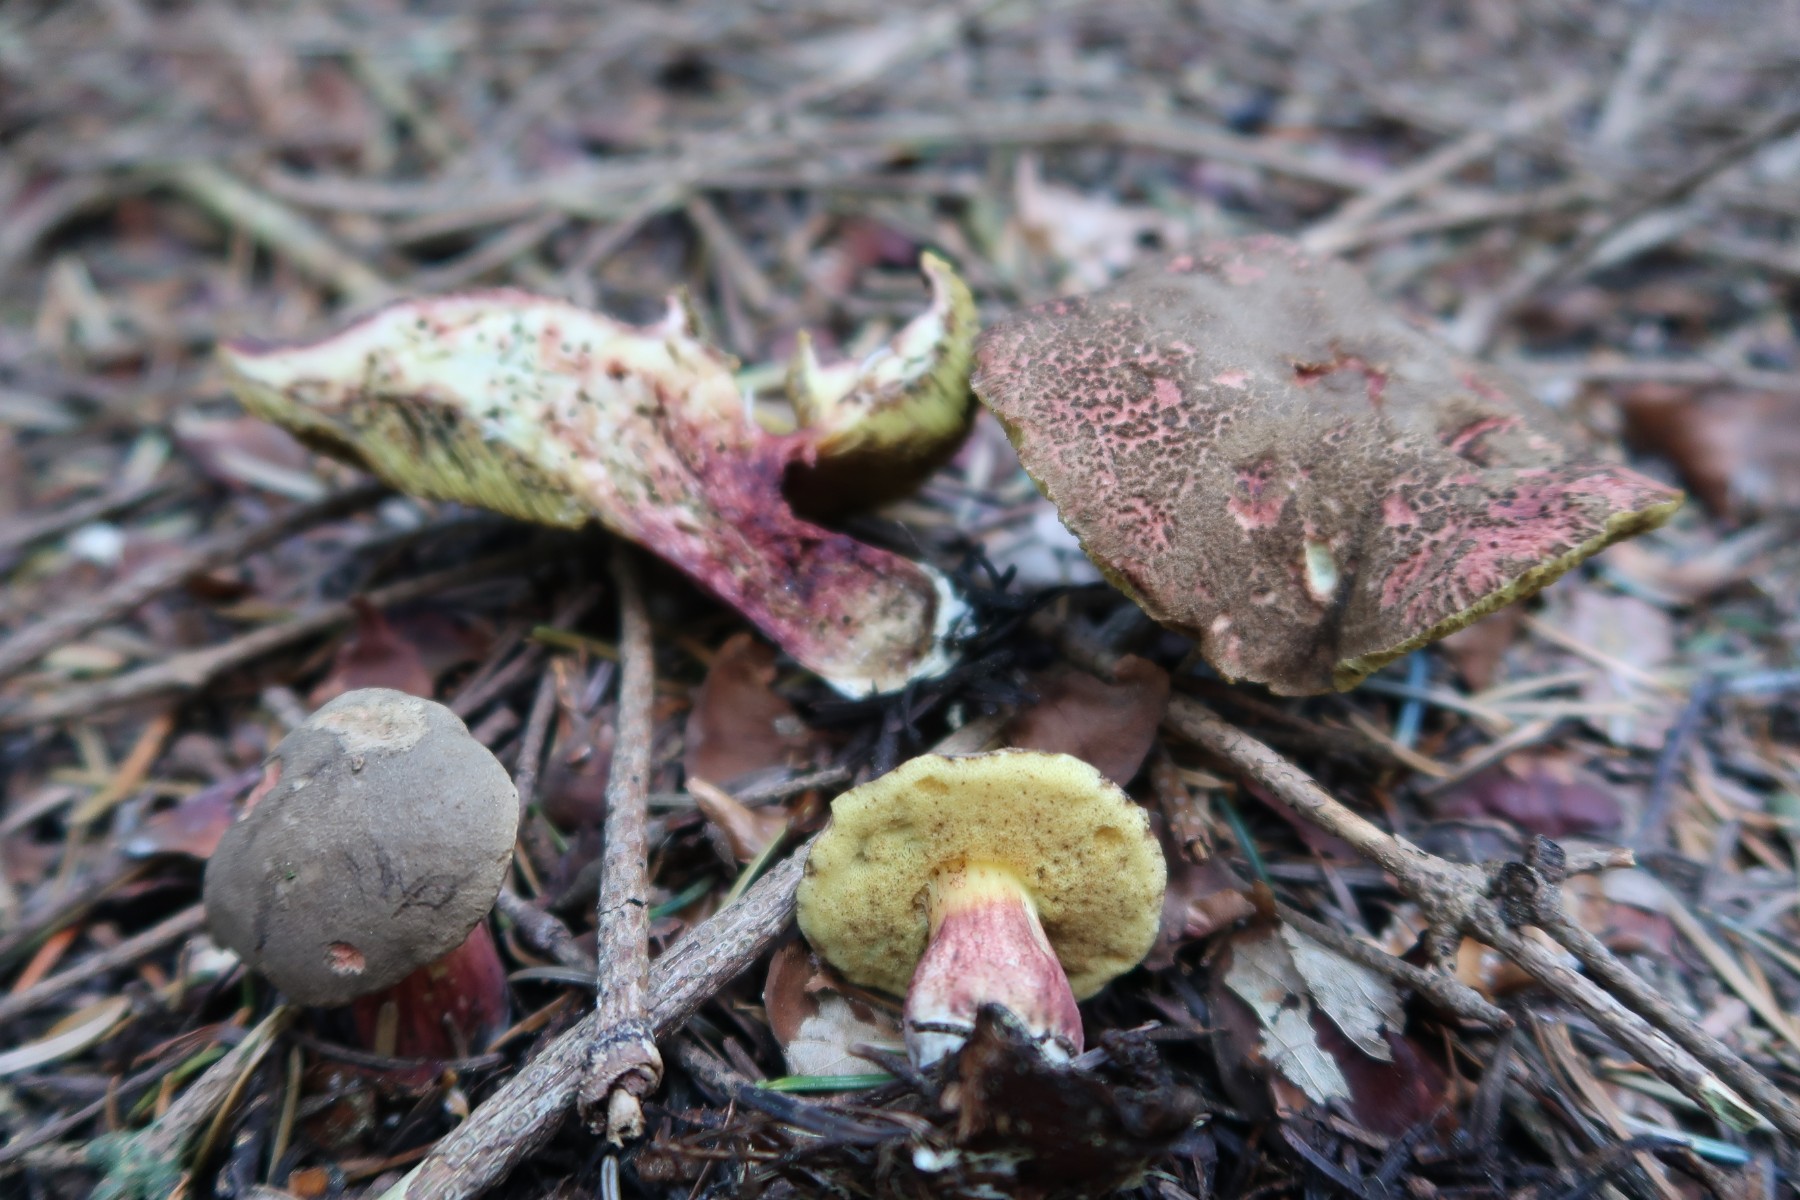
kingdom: Fungi
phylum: Basidiomycota
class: Agaricomycetes
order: Boletales
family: Boletaceae
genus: Xerocomellus
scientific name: Xerocomellus chrysenteron
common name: rødsprukken rørhat
